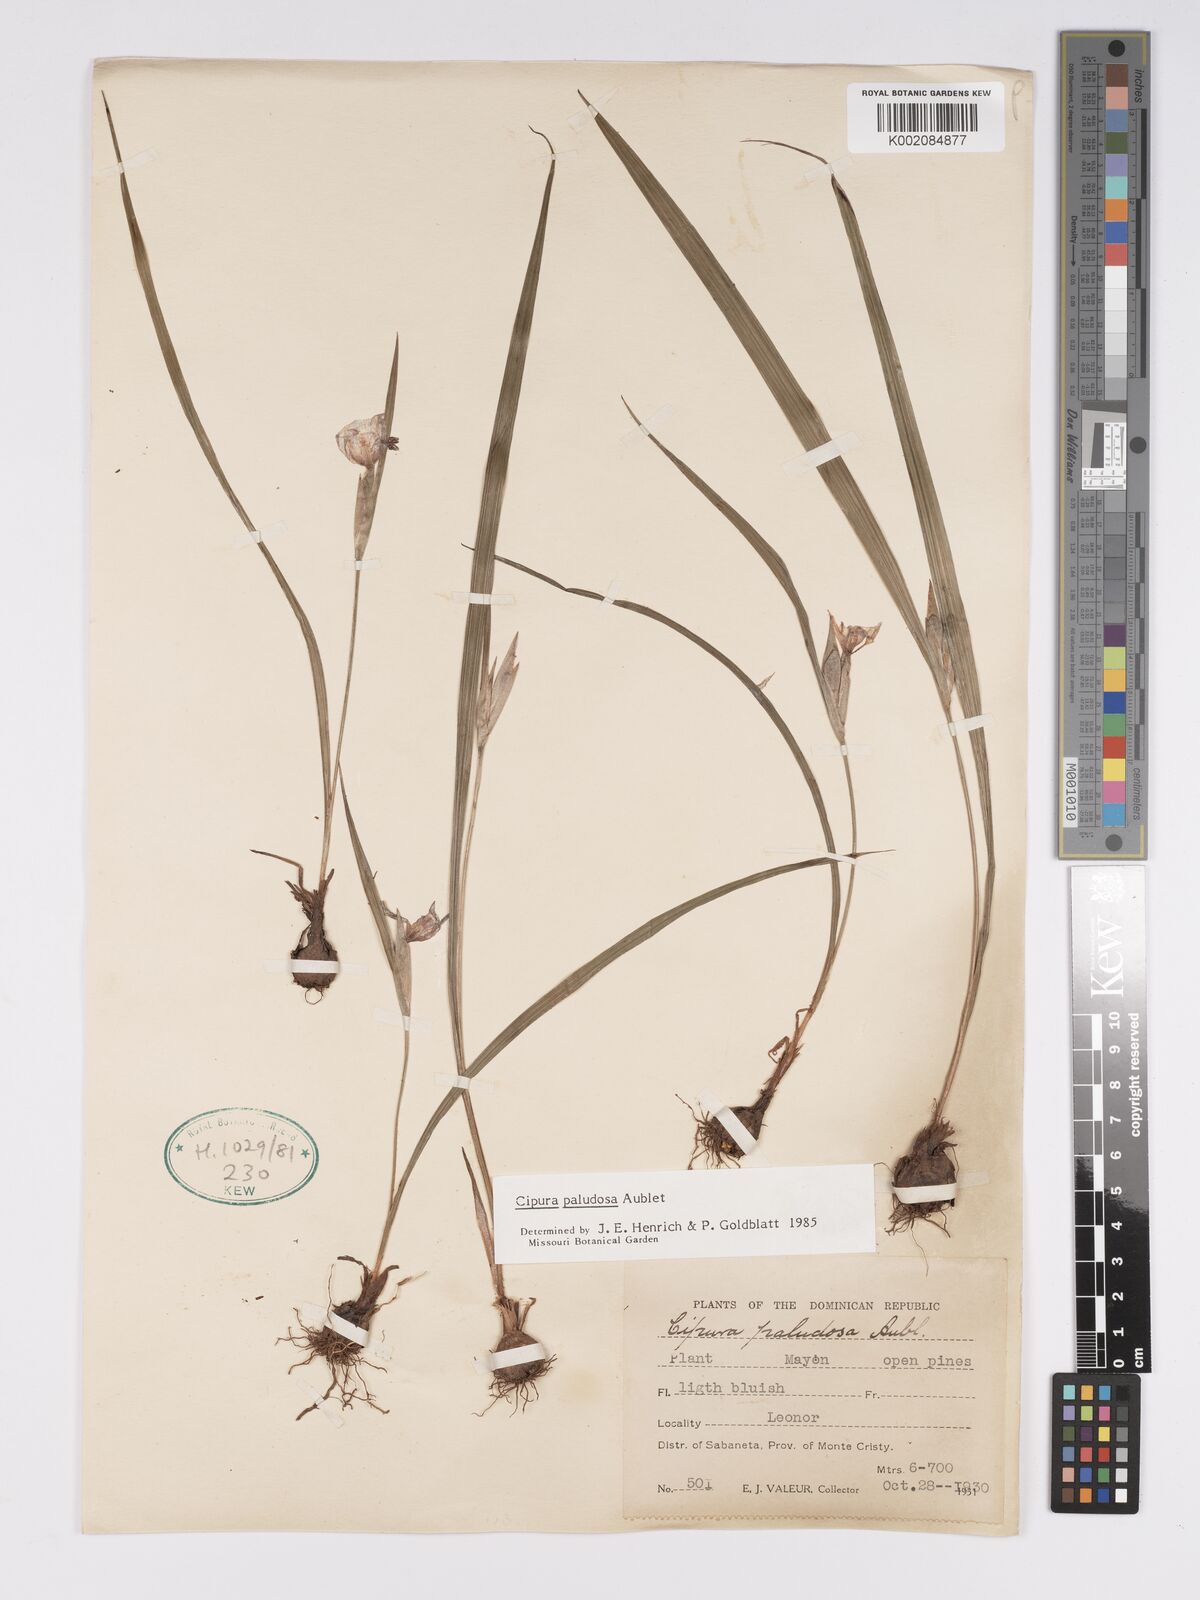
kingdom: Plantae
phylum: Tracheophyta
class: Liliopsida
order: Asparagales
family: Iridaceae
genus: Cipura
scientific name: Cipura paludosa
